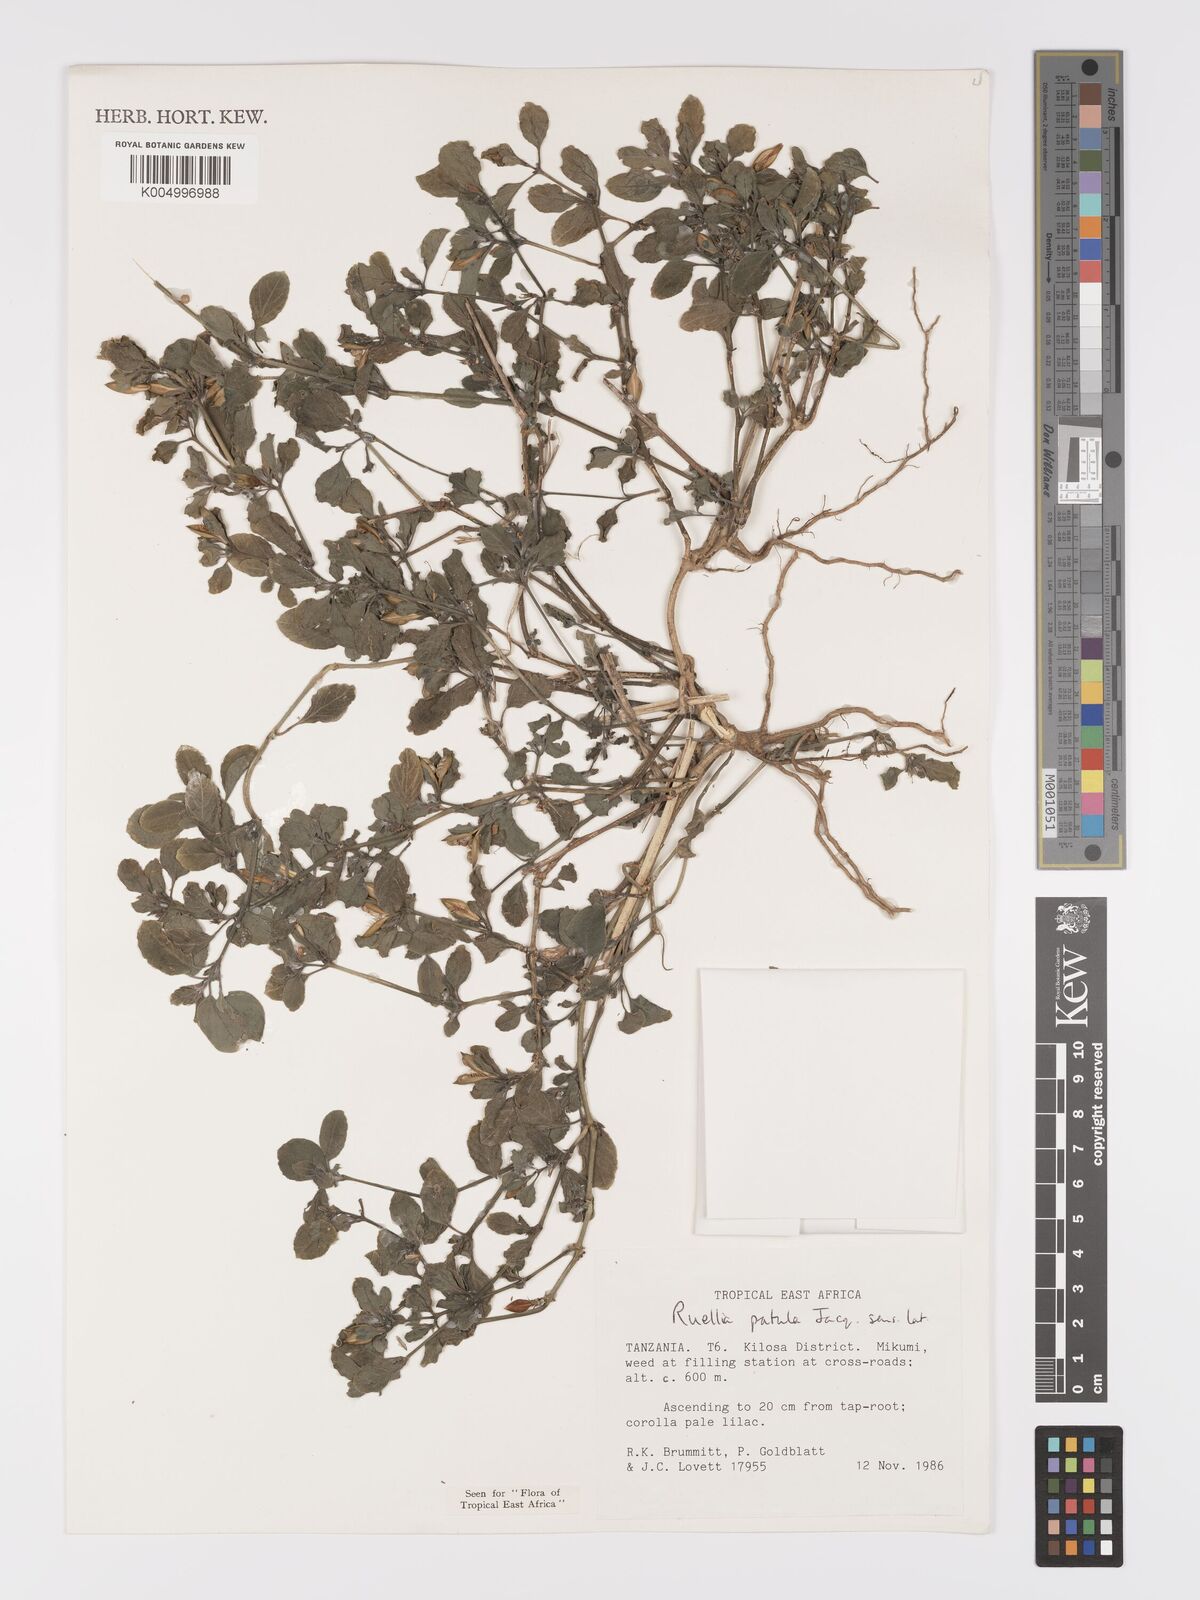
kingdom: Plantae
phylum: Tracheophyta
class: Magnoliopsida
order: Lamiales
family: Acanthaceae
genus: Ruellia
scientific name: Ruellia patula
